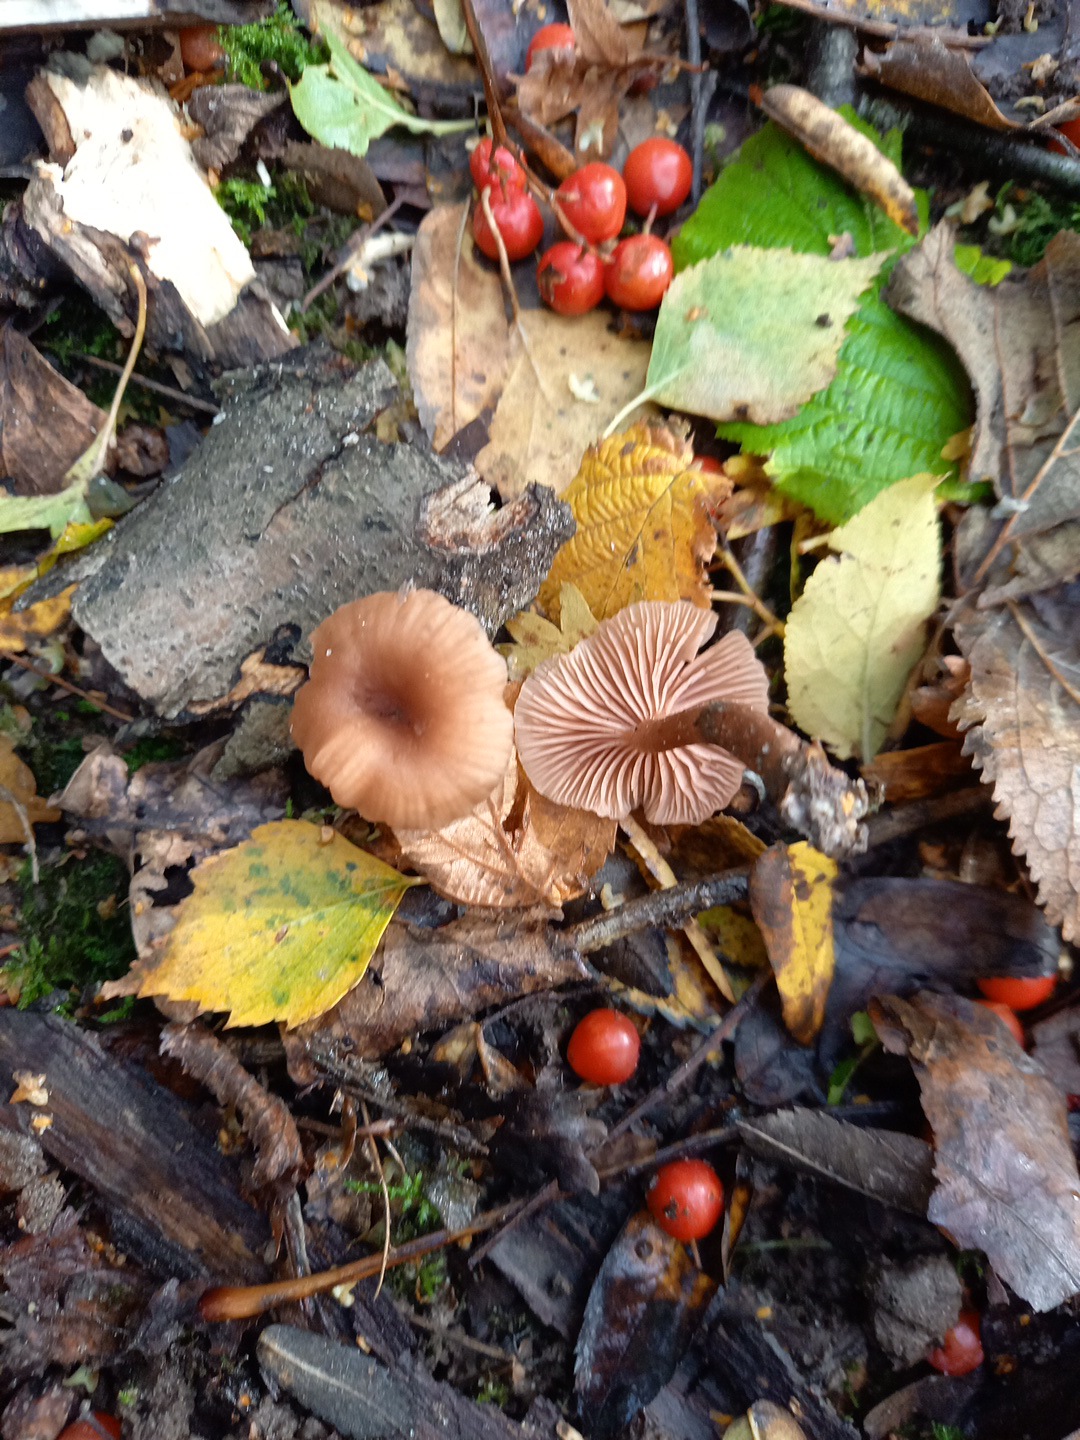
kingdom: Fungi
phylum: Basidiomycota
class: Agaricomycetes
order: Agaricales
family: Hydnangiaceae
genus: Laccaria
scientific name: Laccaria laccata
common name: rød ametysthat
